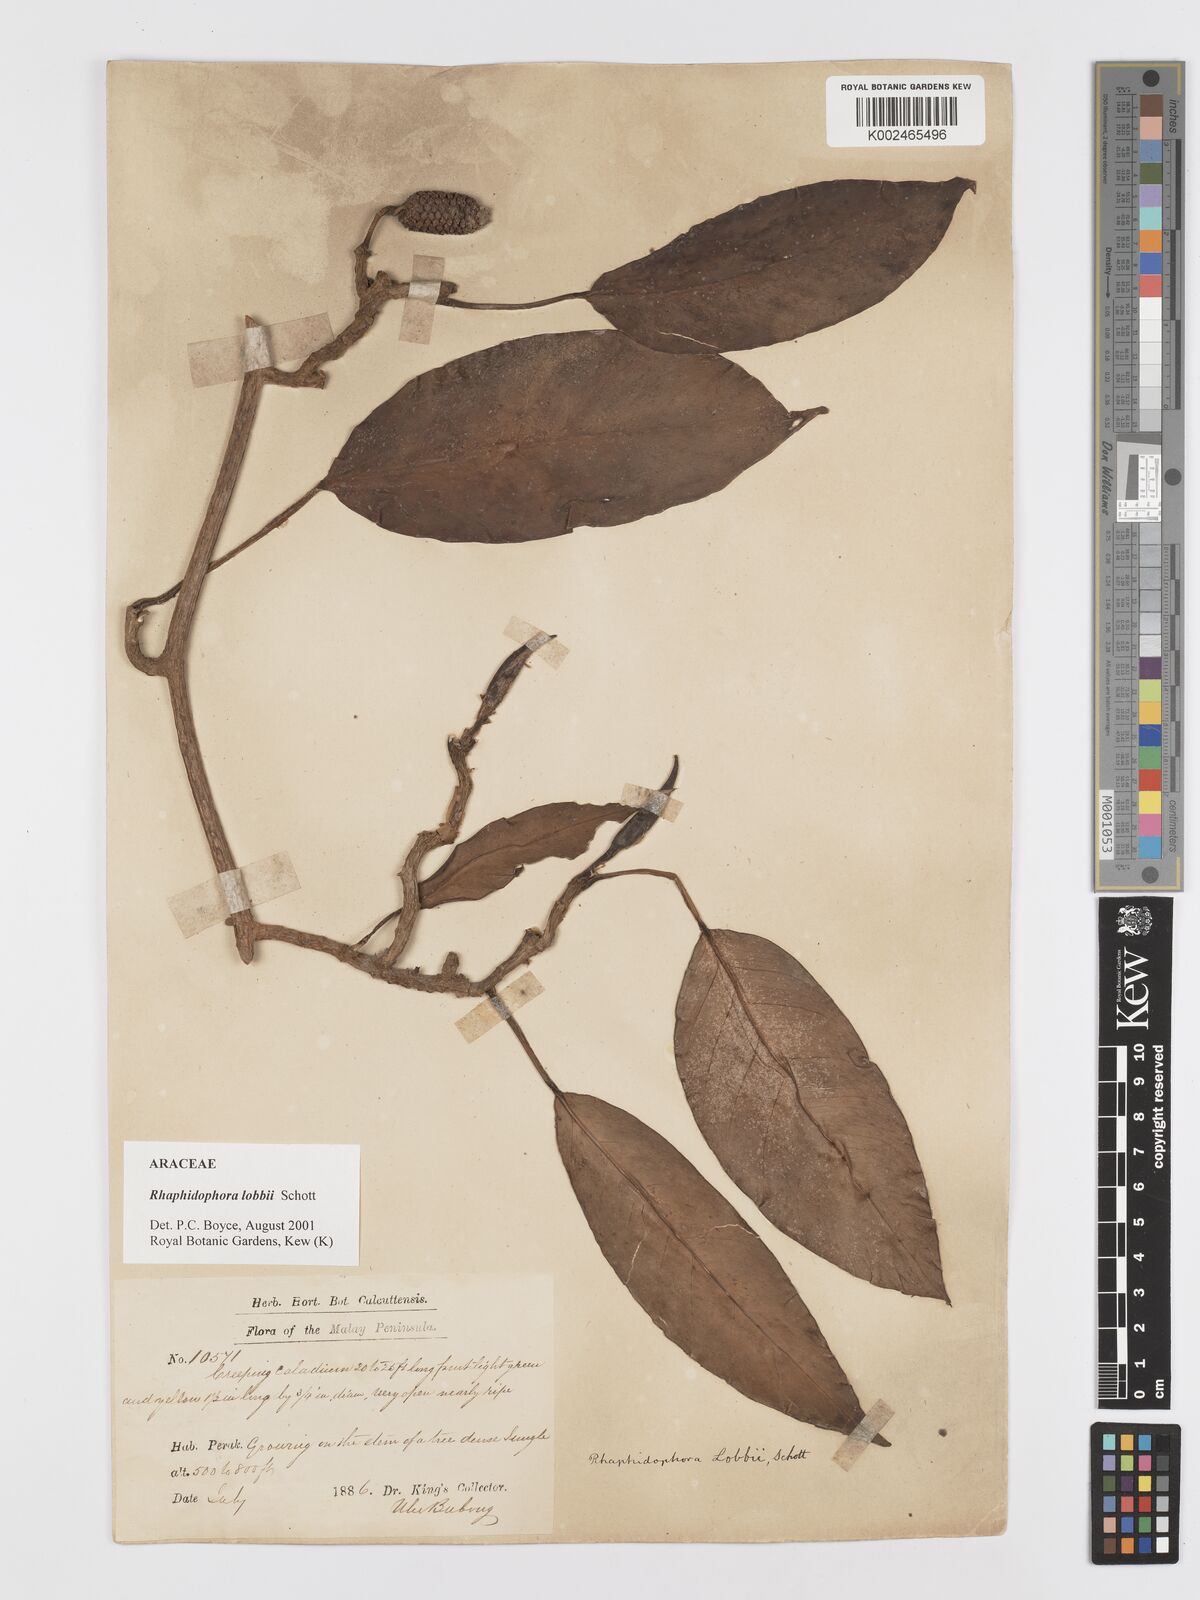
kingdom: Plantae
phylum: Tracheophyta
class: Liliopsida
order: Alismatales
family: Araceae
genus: Rhaphidophora
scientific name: Rhaphidophora lobbii
